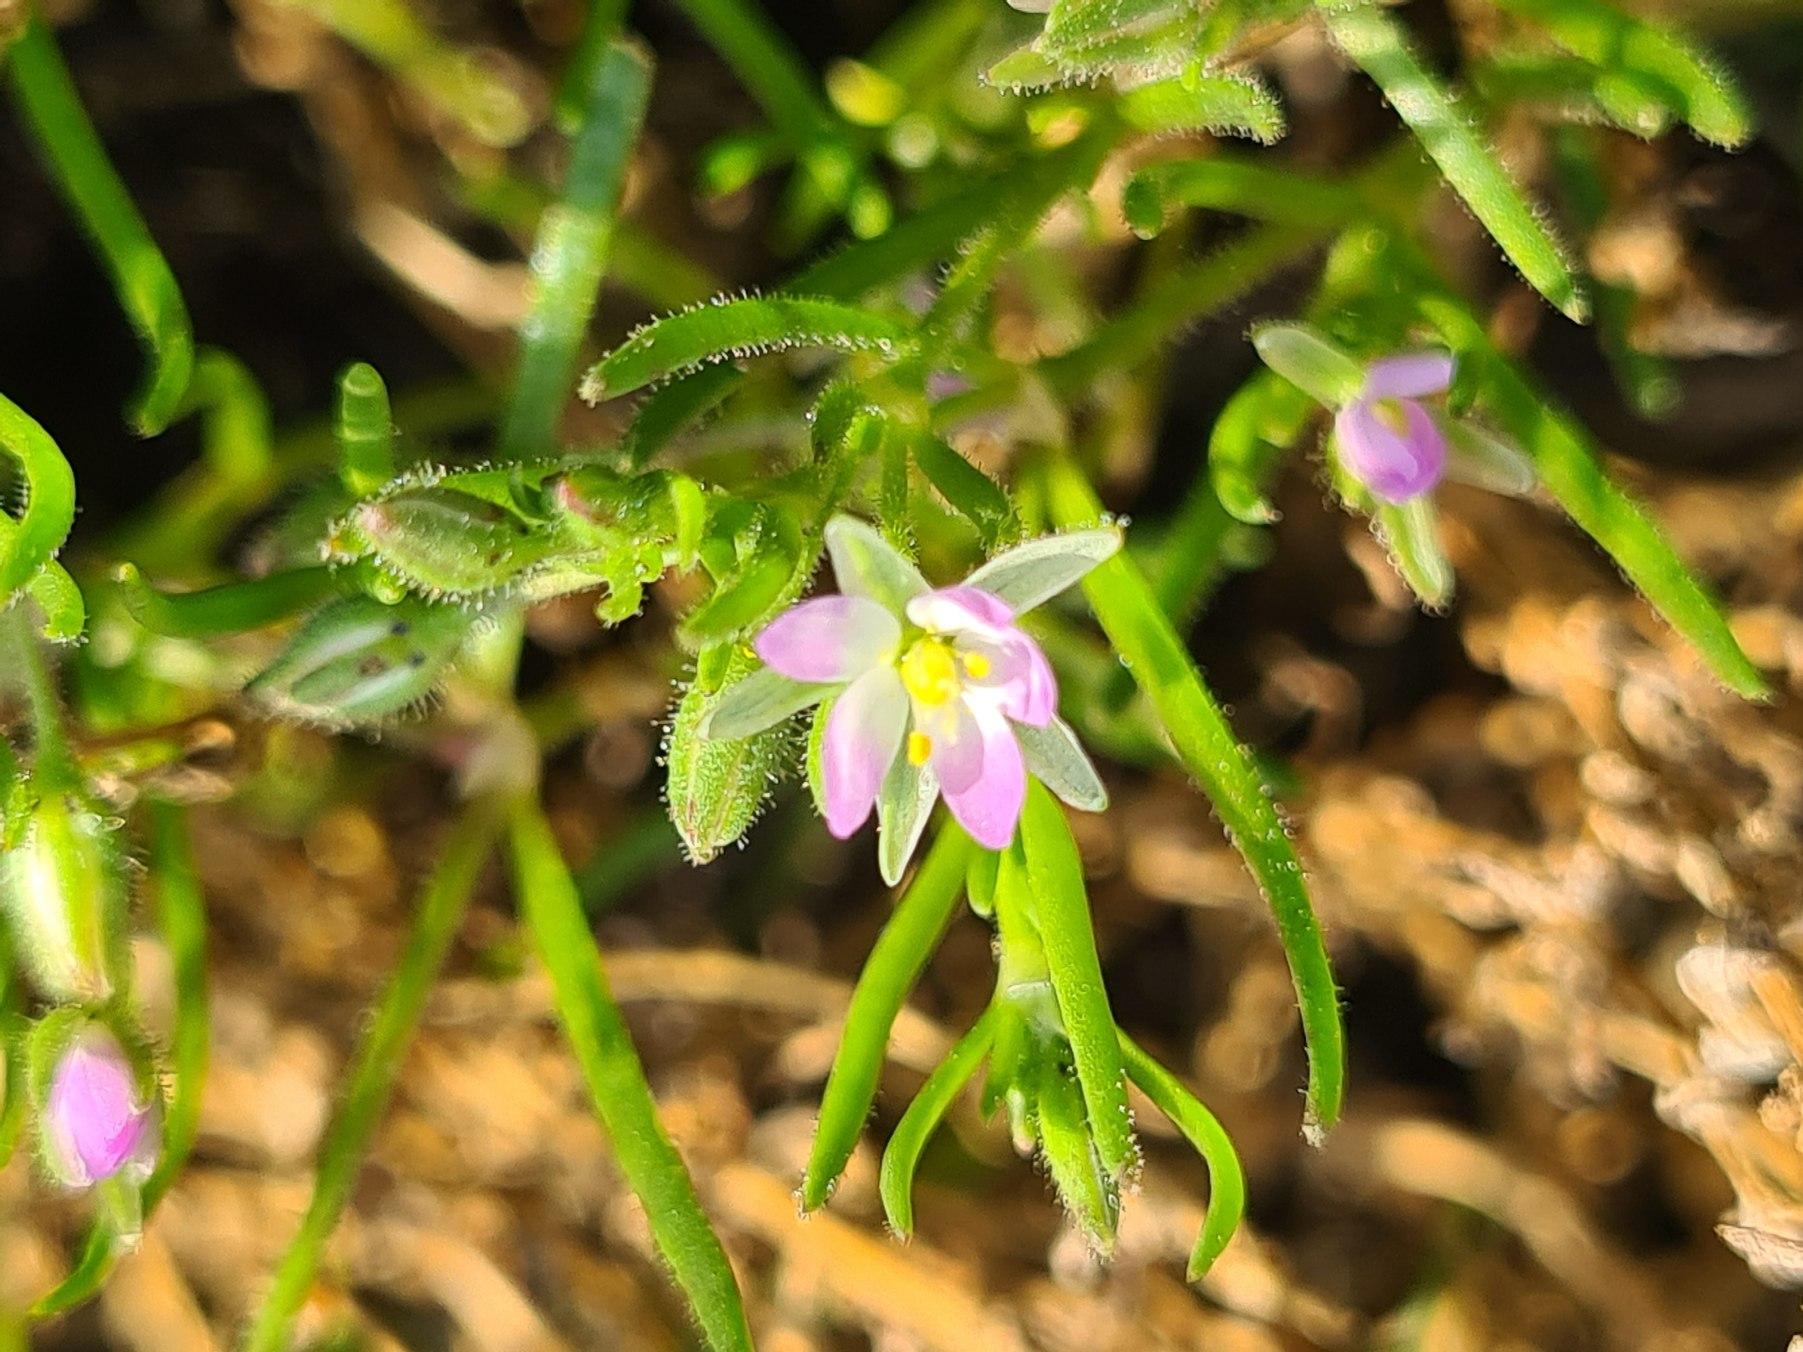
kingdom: Plantae
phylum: Tracheophyta
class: Magnoliopsida
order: Caryophyllales
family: Caryophyllaceae
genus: Spergularia
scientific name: Spergularia marina
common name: Kødet hindeknæ
